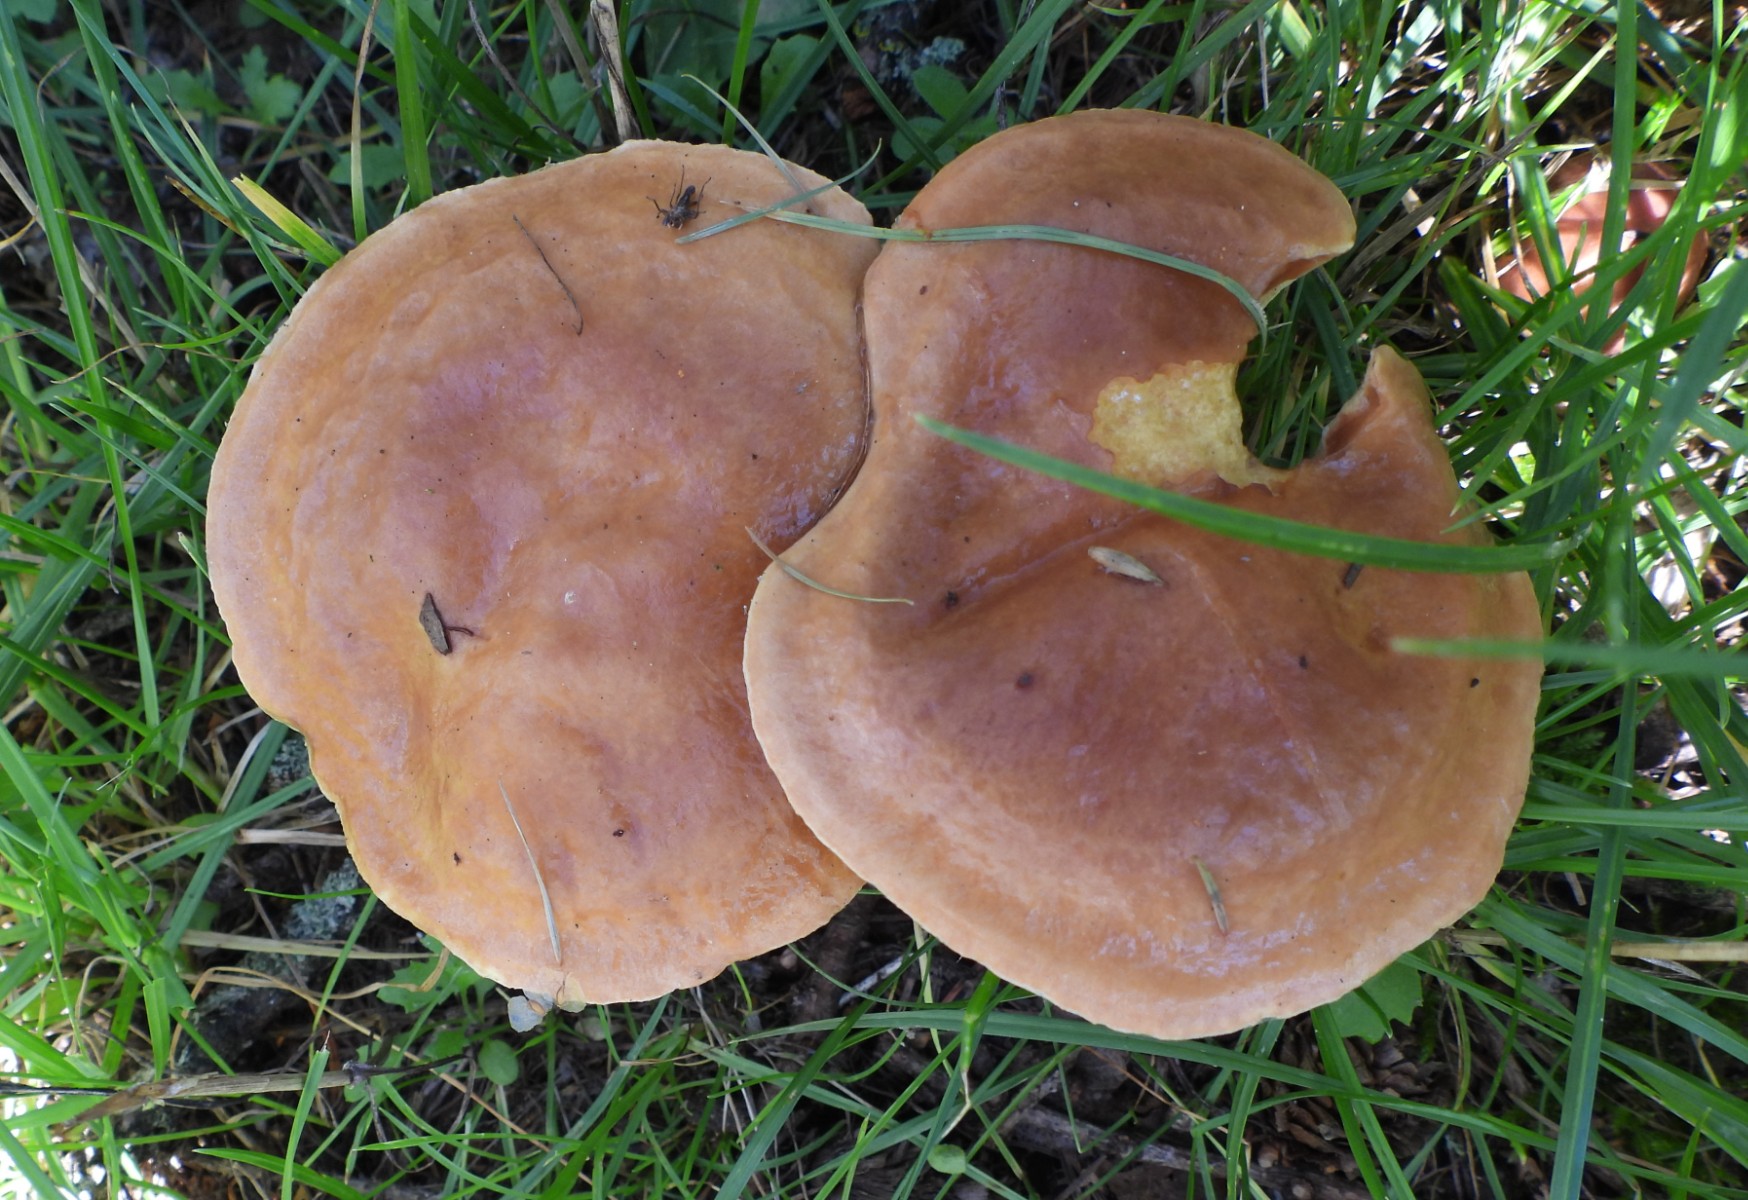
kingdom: Fungi
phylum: Basidiomycota
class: Agaricomycetes
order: Boletales
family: Suillaceae
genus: Suillus
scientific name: Suillus grevillei
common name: lærke-slimrørhat
